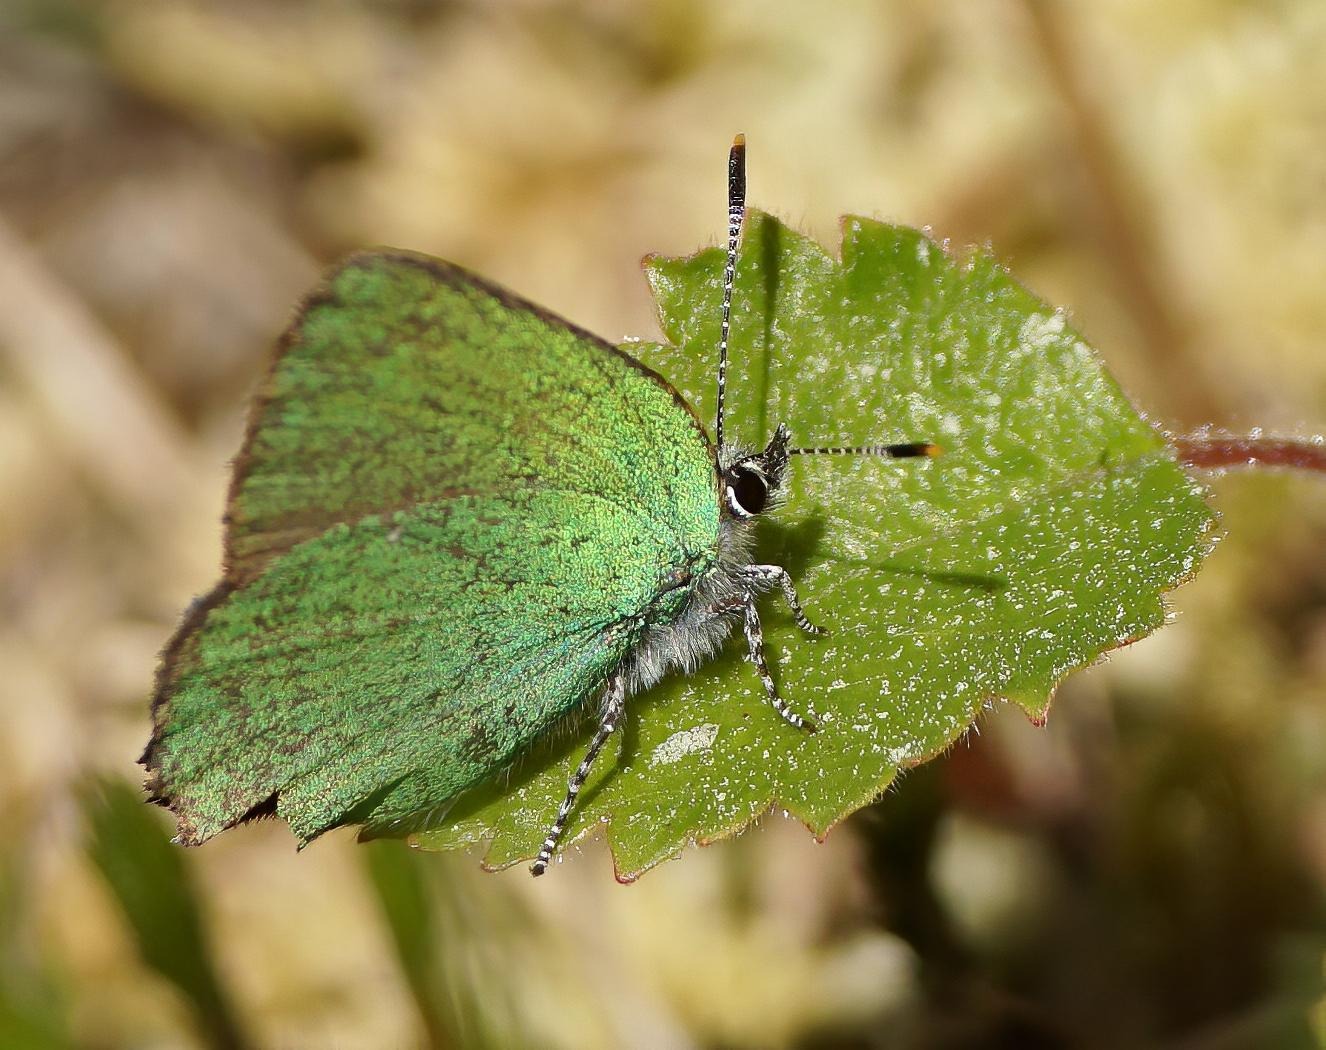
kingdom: Animalia
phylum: Arthropoda
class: Insecta
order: Lepidoptera
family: Lycaenidae
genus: Callophrys
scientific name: Callophrys rubi
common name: Grøn busksommerfugl
